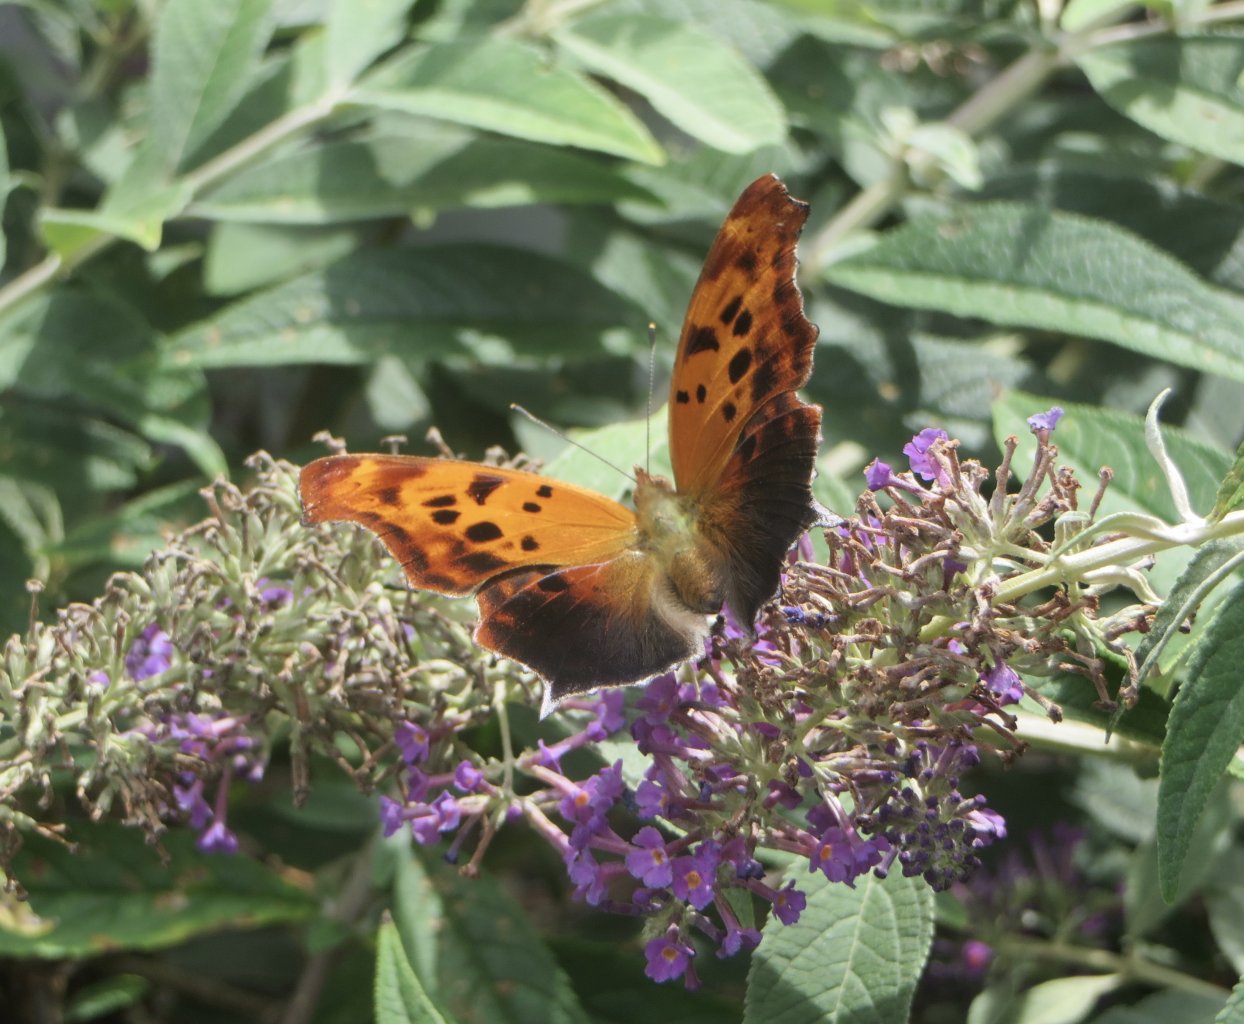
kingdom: Animalia
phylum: Arthropoda
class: Insecta
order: Lepidoptera
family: Nymphalidae
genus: Polygonia
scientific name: Polygonia interrogationis
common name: Question Mark
